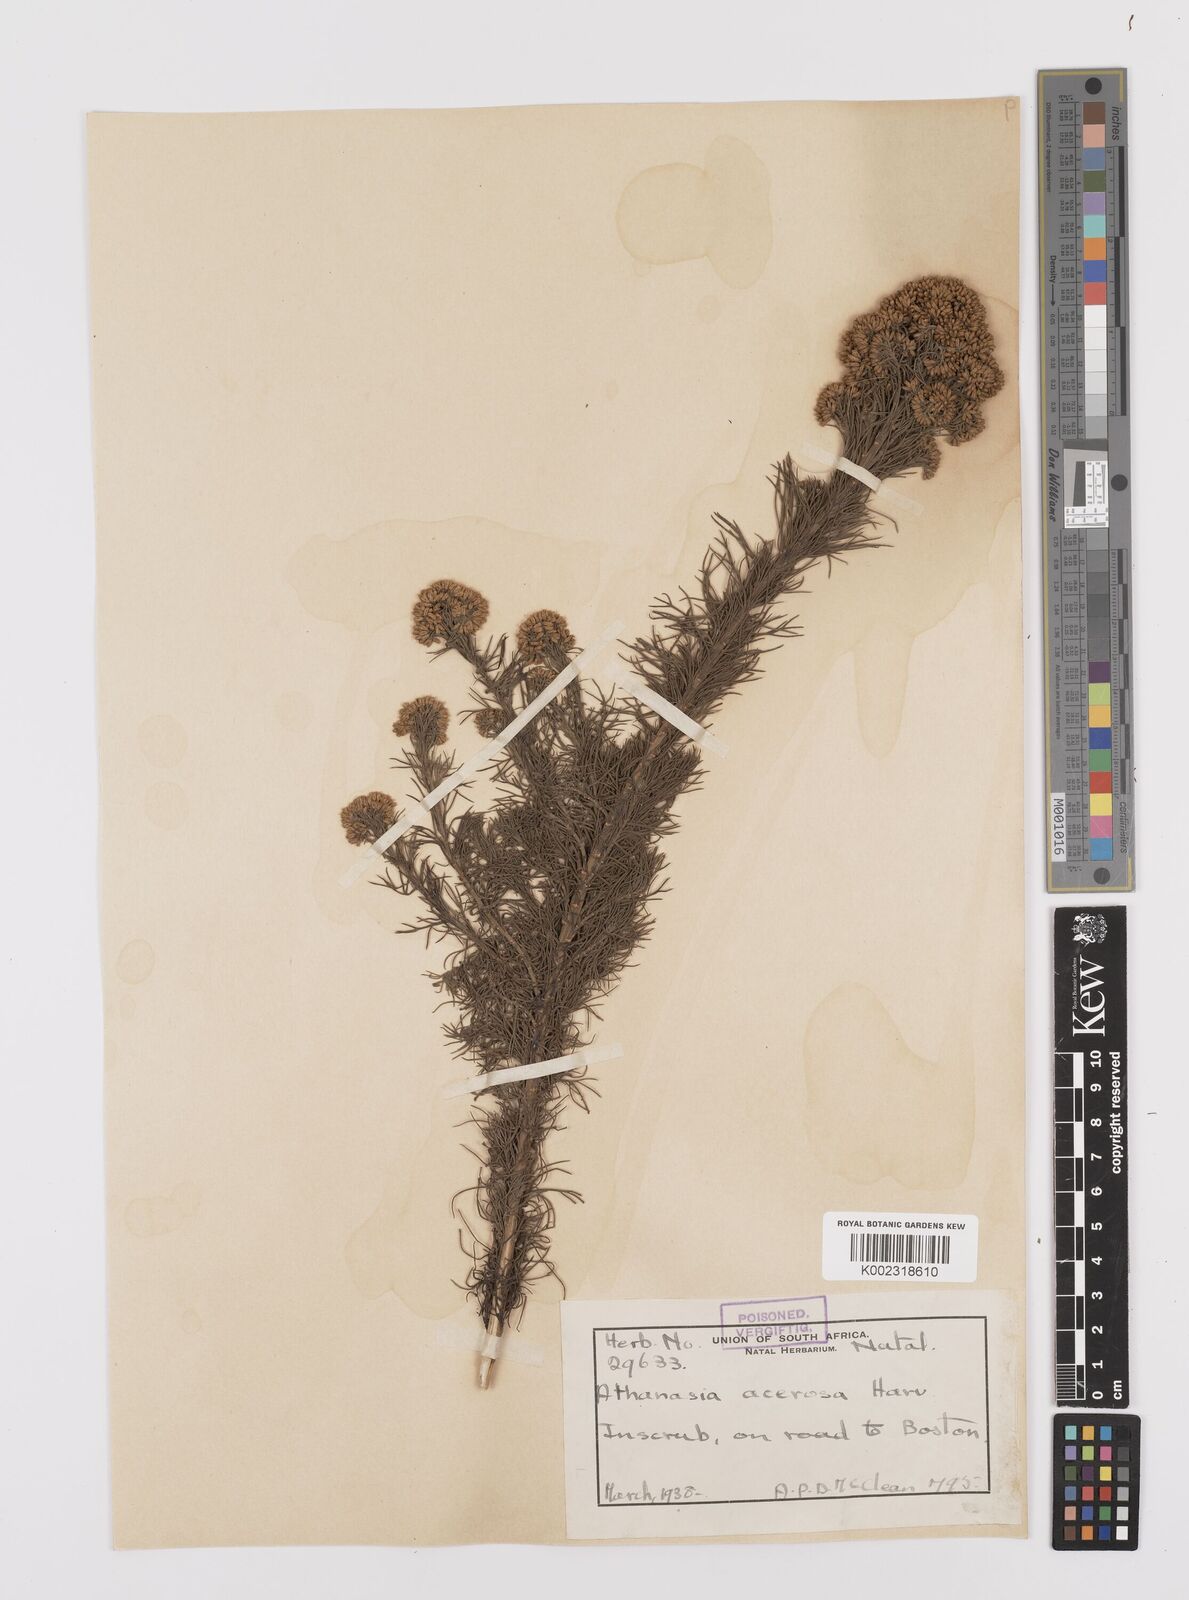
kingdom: Plantae
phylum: Tracheophyta
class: Magnoliopsida
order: Asterales
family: Asteraceae
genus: Phymaspermum
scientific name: Phymaspermum acerosum
